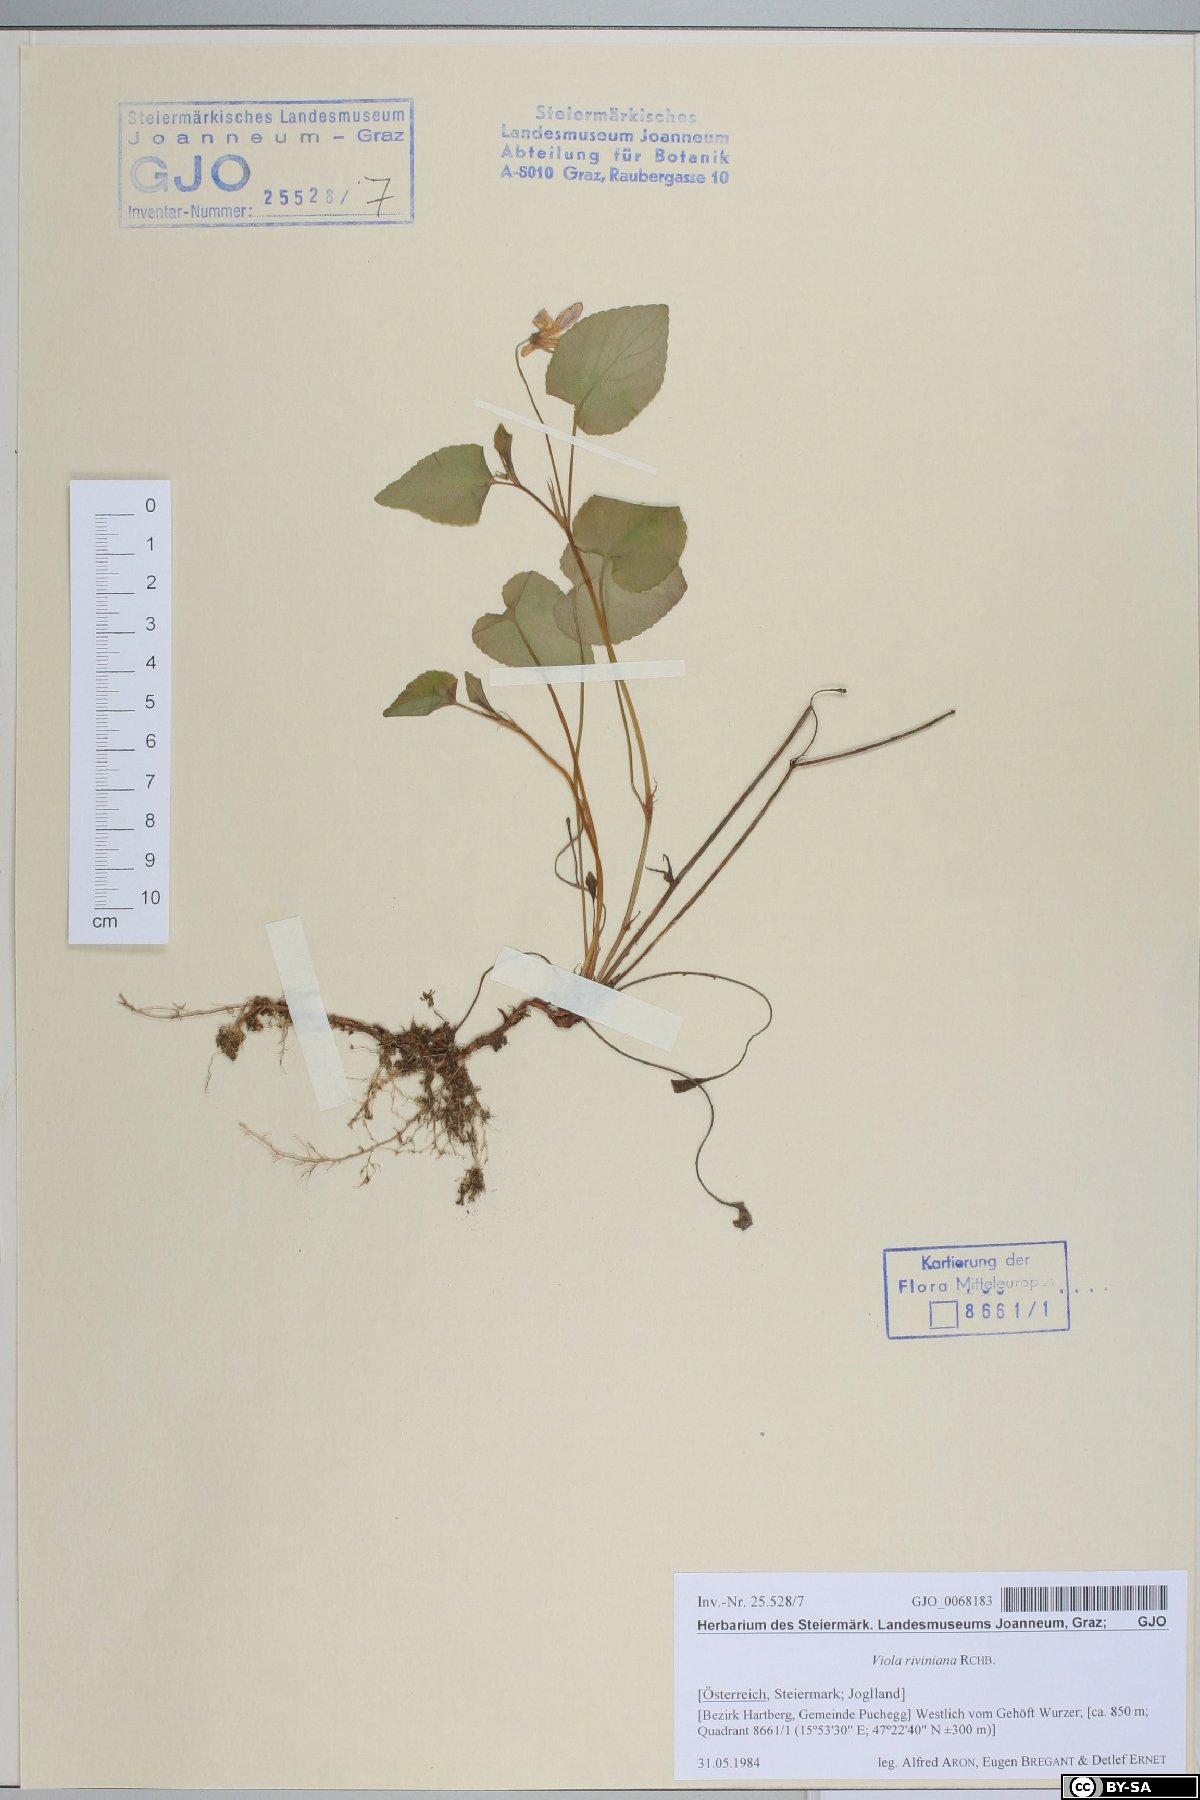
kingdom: Plantae
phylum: Tracheophyta
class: Magnoliopsida
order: Malpighiales
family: Violaceae
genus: Viola
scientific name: Viola riviniana
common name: Common dog-violet
